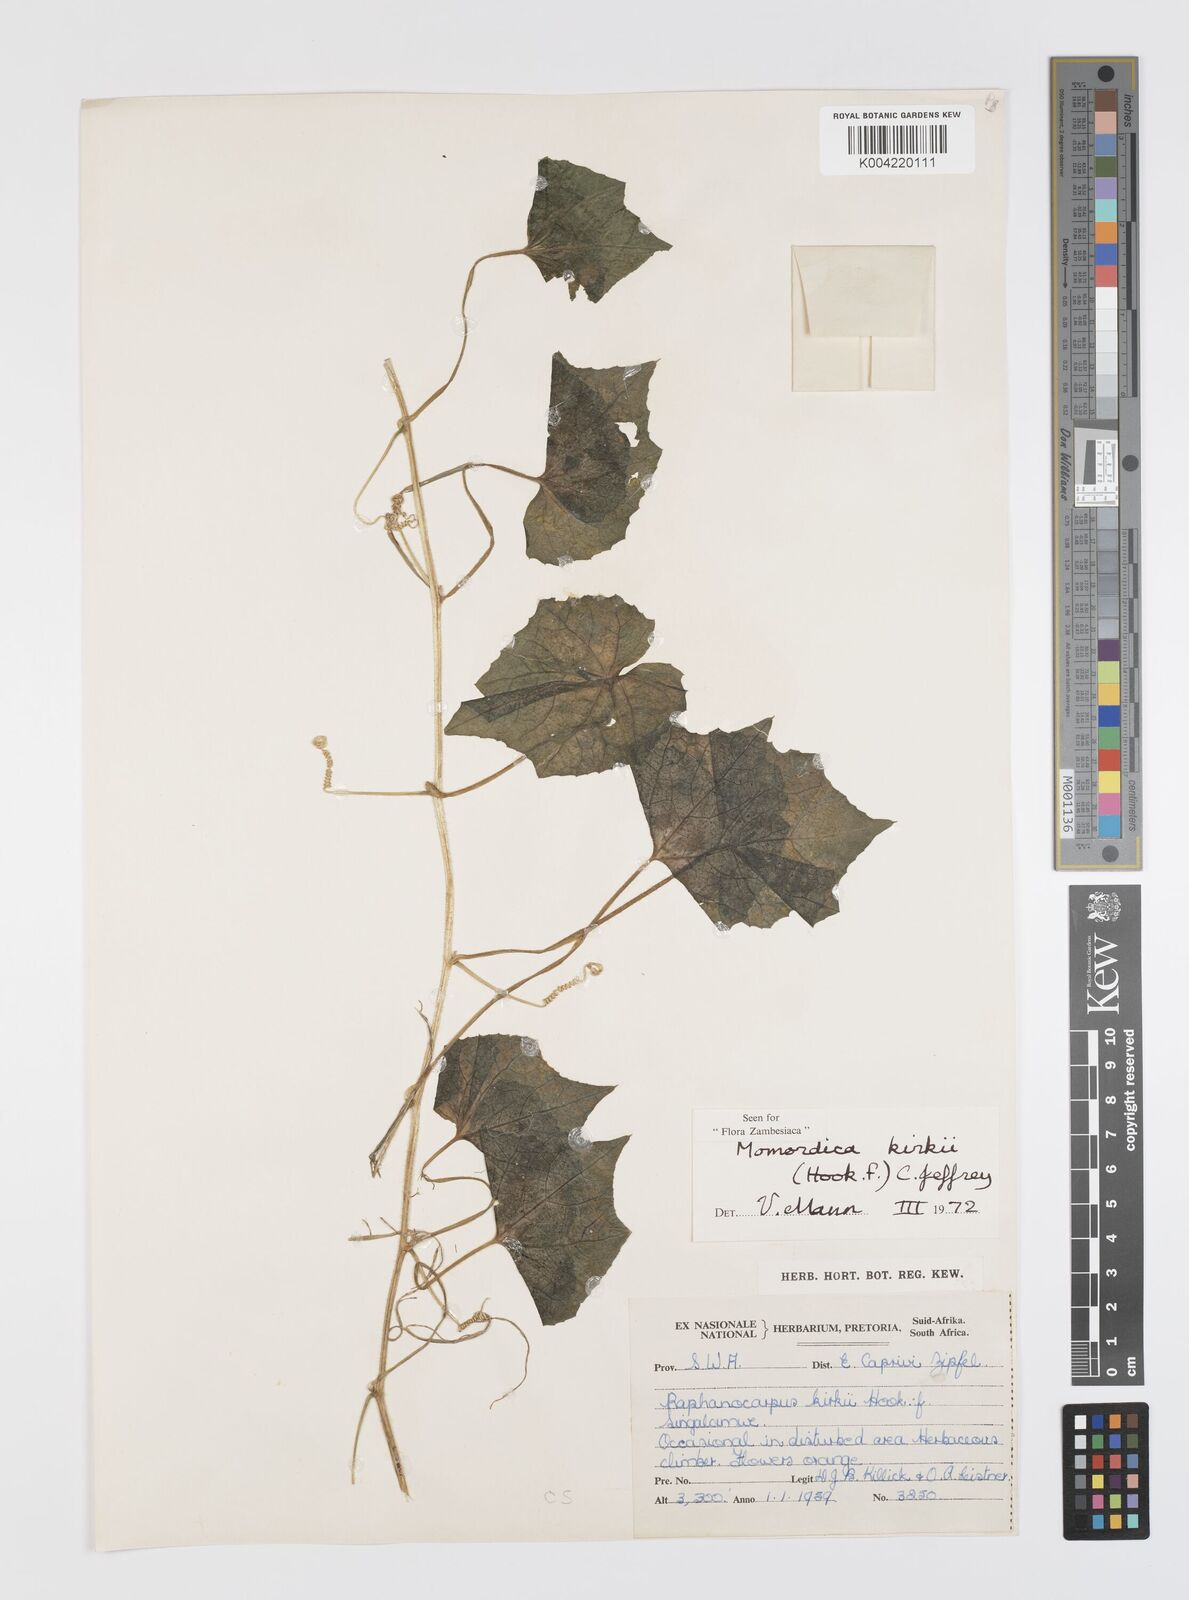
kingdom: Plantae
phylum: Tracheophyta
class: Magnoliopsida
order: Cucurbitales
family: Cucurbitaceae
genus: Momordica
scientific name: Momordica kirkii
